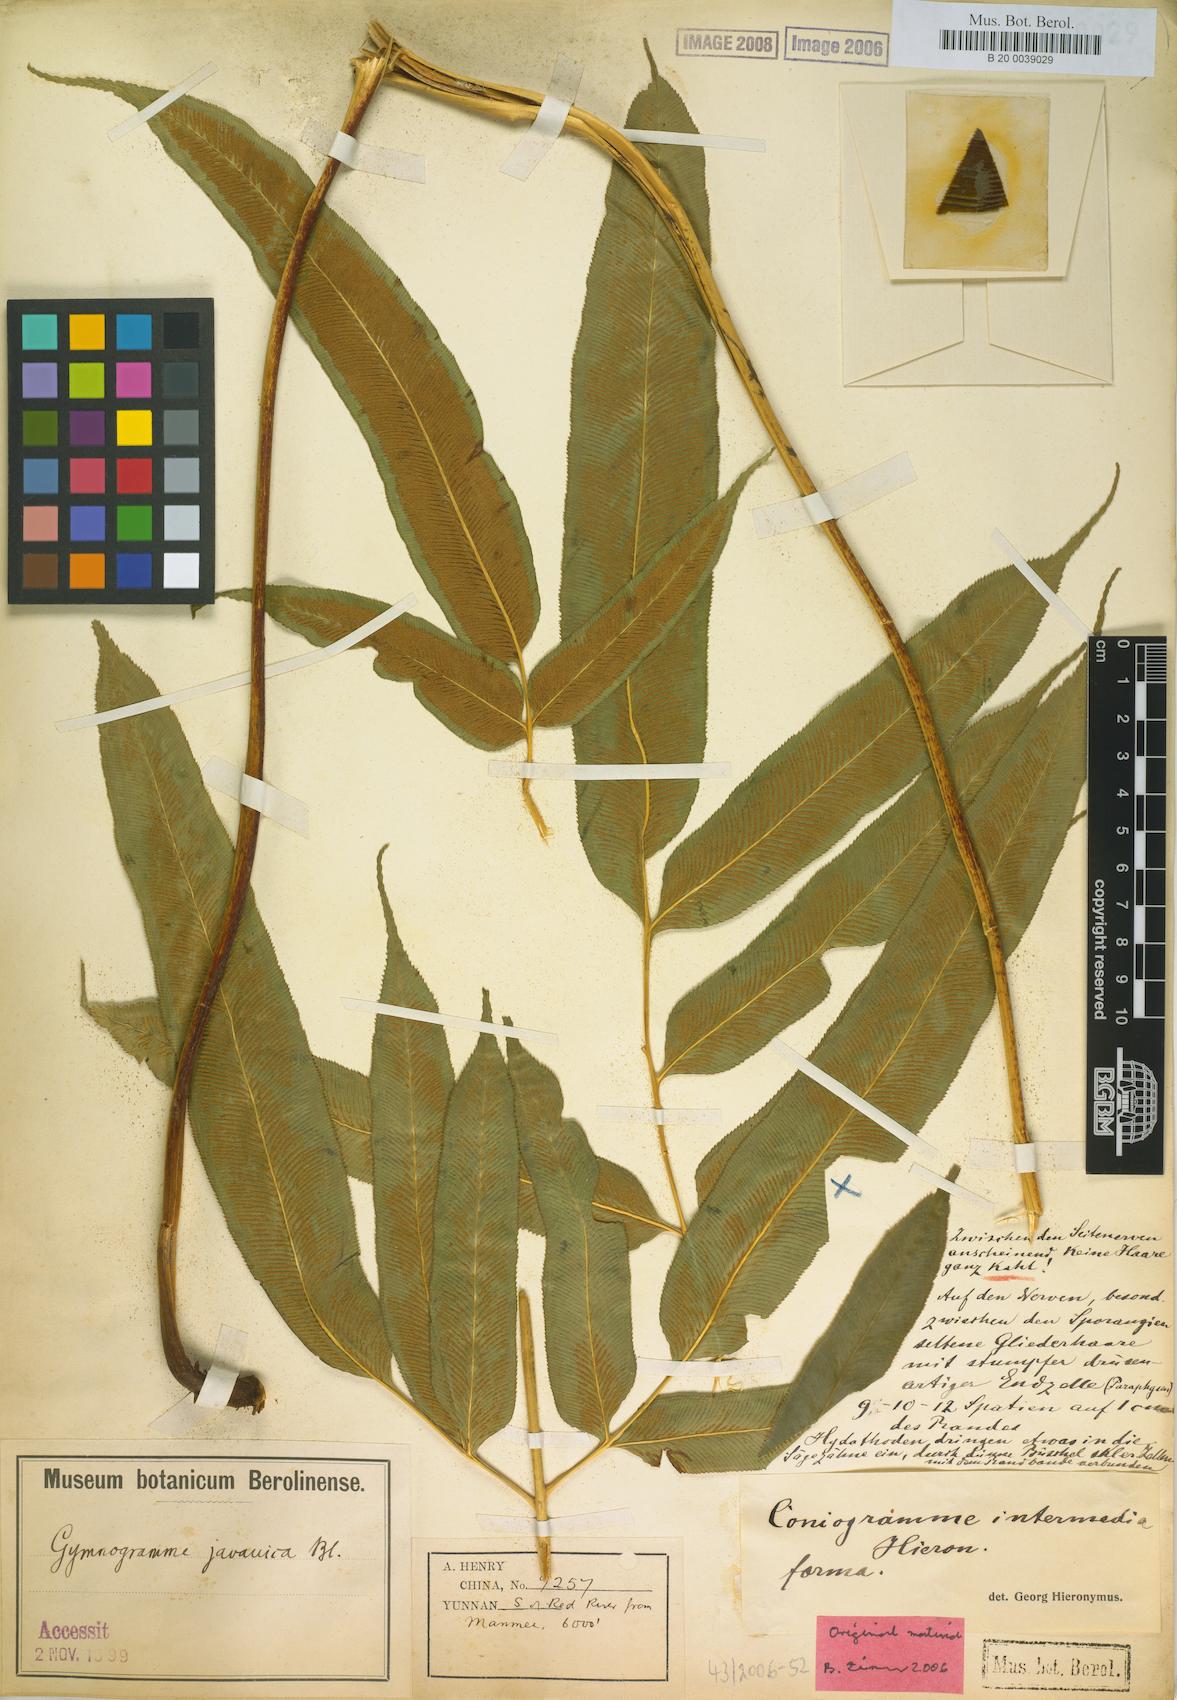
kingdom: Plantae
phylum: Tracheophyta
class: Polypodiopsida
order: Polypodiales
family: Pteridaceae
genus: Coniogramme
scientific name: Coniogramme intermedia
